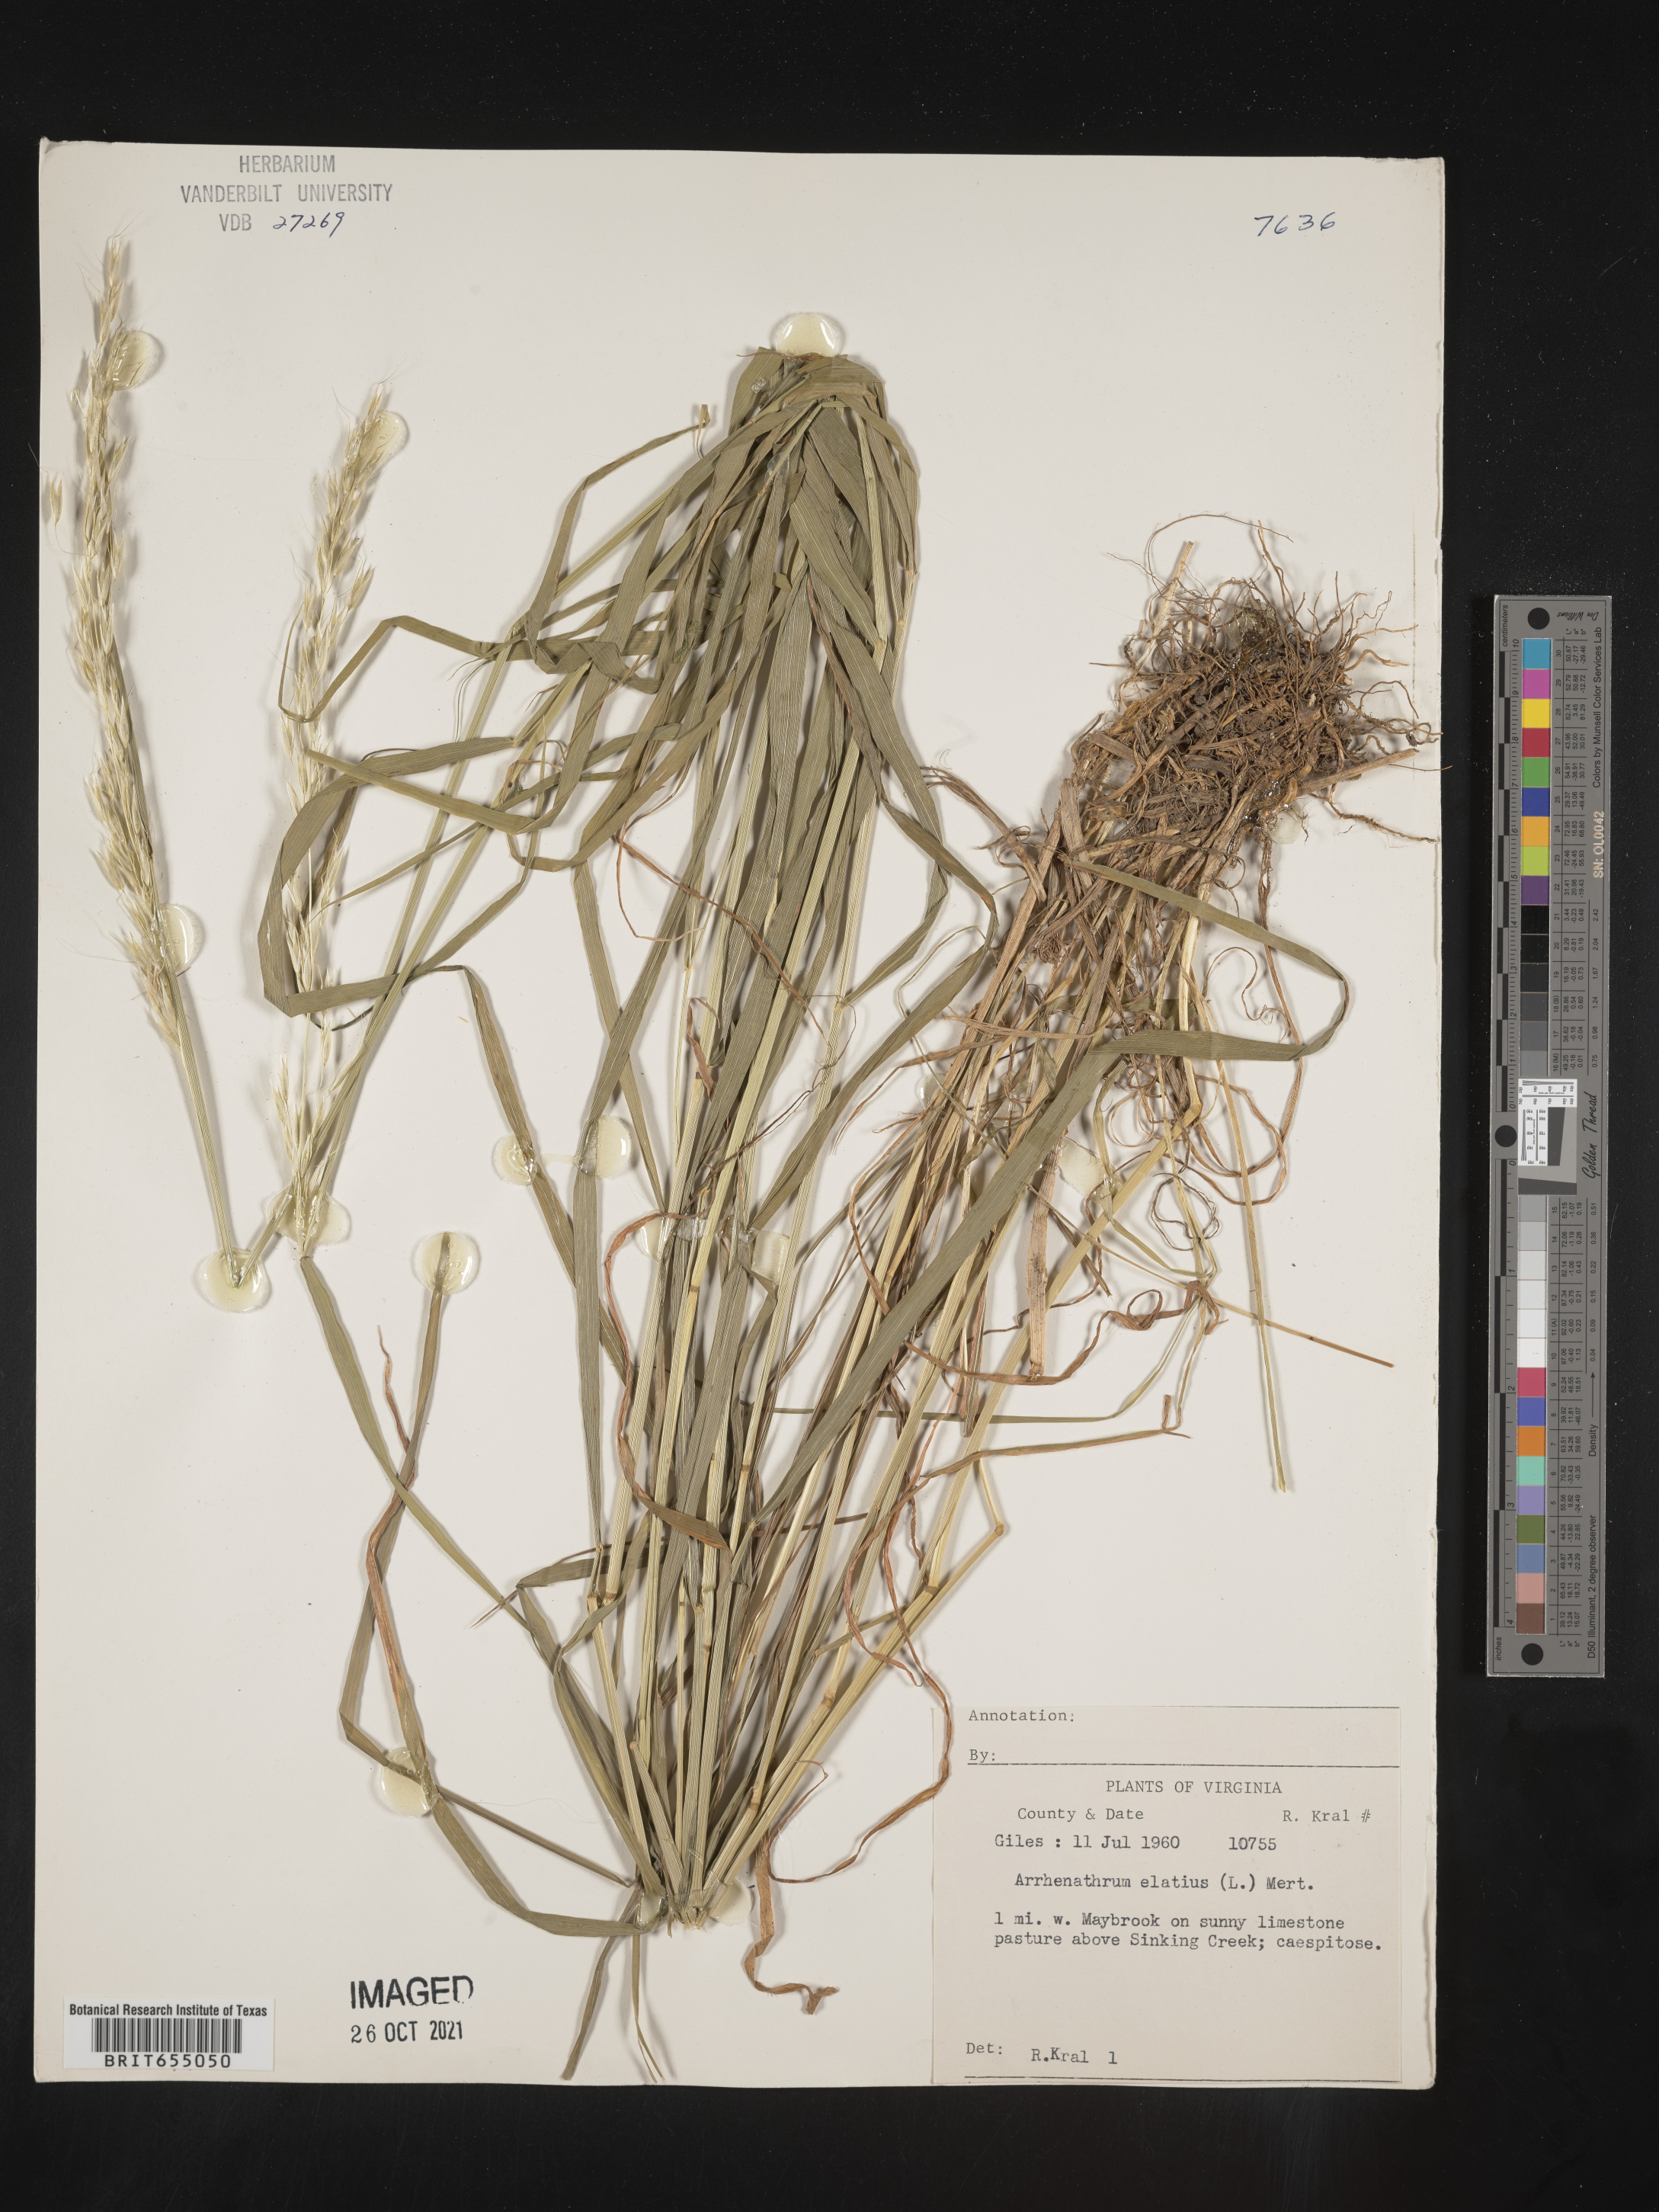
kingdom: Plantae
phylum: Tracheophyta
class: Liliopsida
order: Poales
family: Poaceae
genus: Arrhenatherum
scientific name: Arrhenatherum
